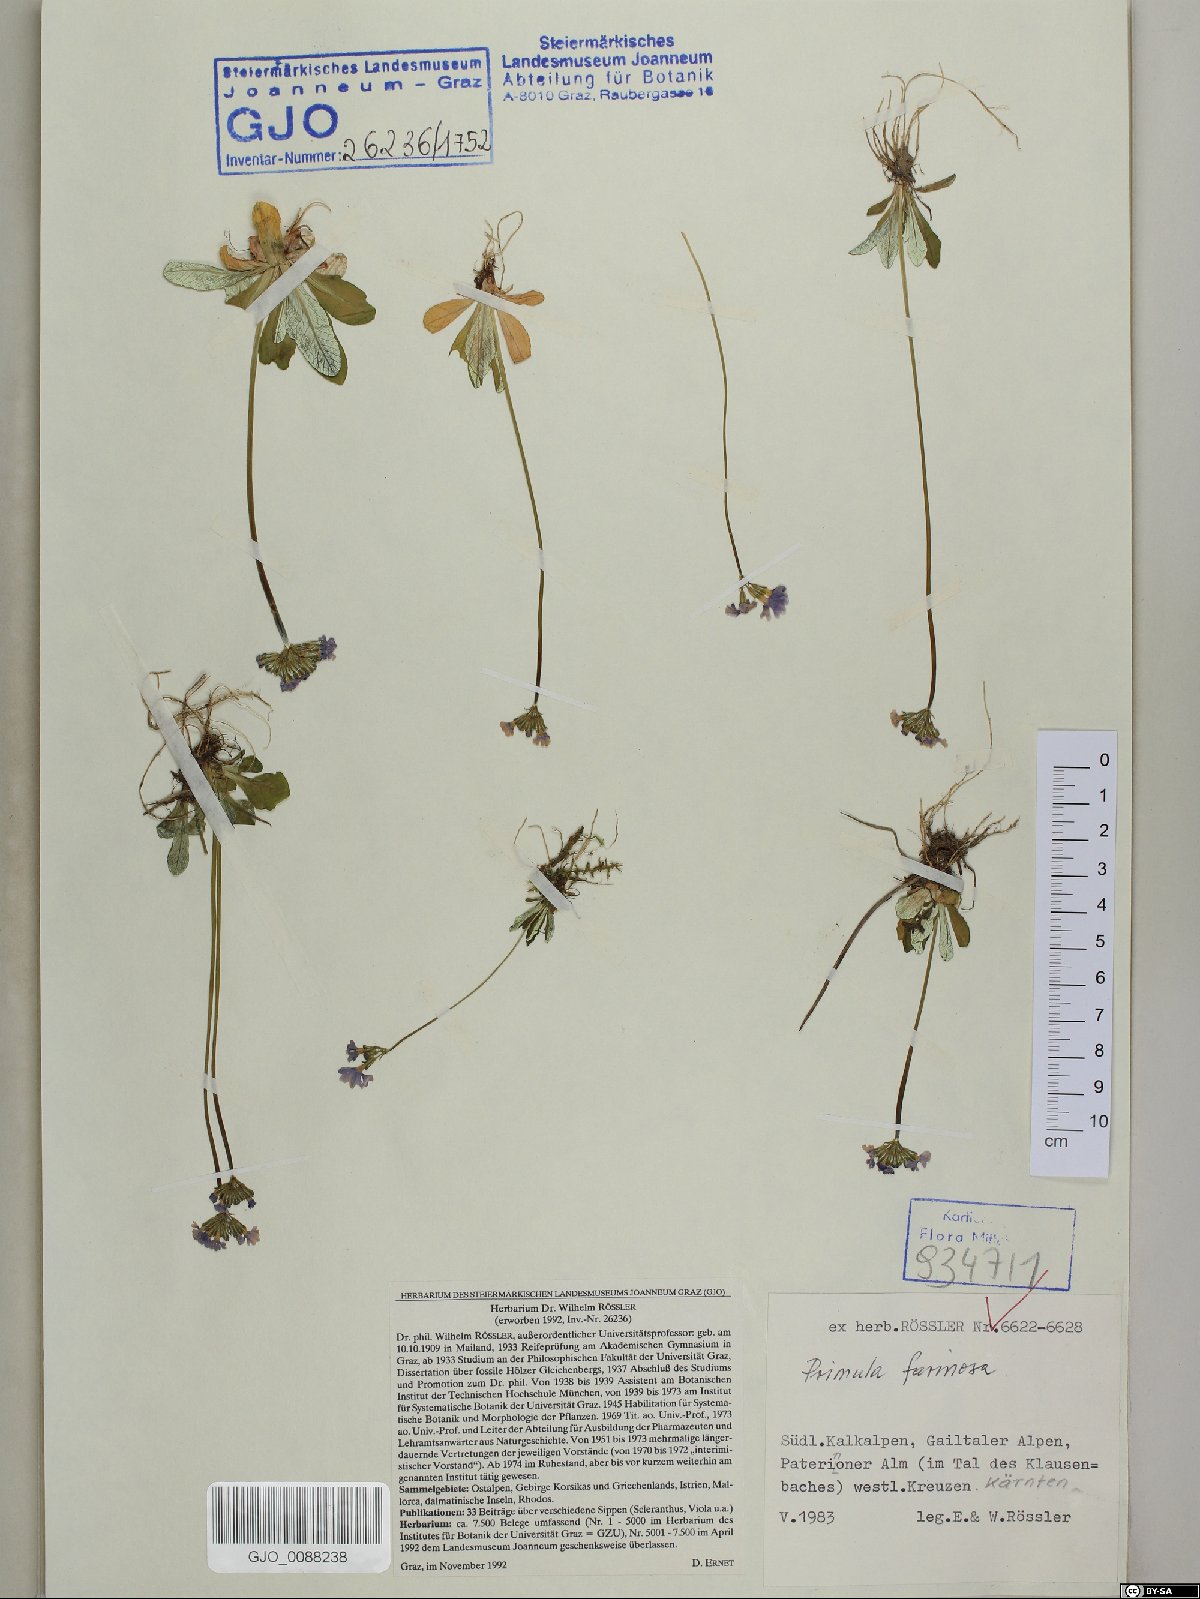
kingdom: Plantae
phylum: Tracheophyta
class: Magnoliopsida
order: Ericales
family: Primulaceae
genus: Primula
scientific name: Primula farinosa
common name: Bird's-eye primrose
